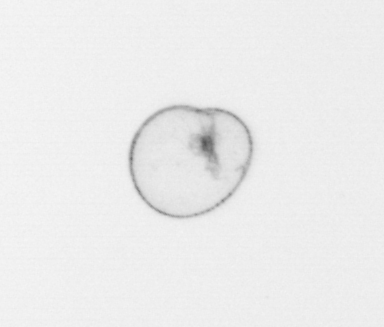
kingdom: Chromista
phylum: Myzozoa
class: Dinophyceae
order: Noctilucales
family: Noctilucaceae
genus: Noctiluca
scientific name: Noctiluca scintillans
